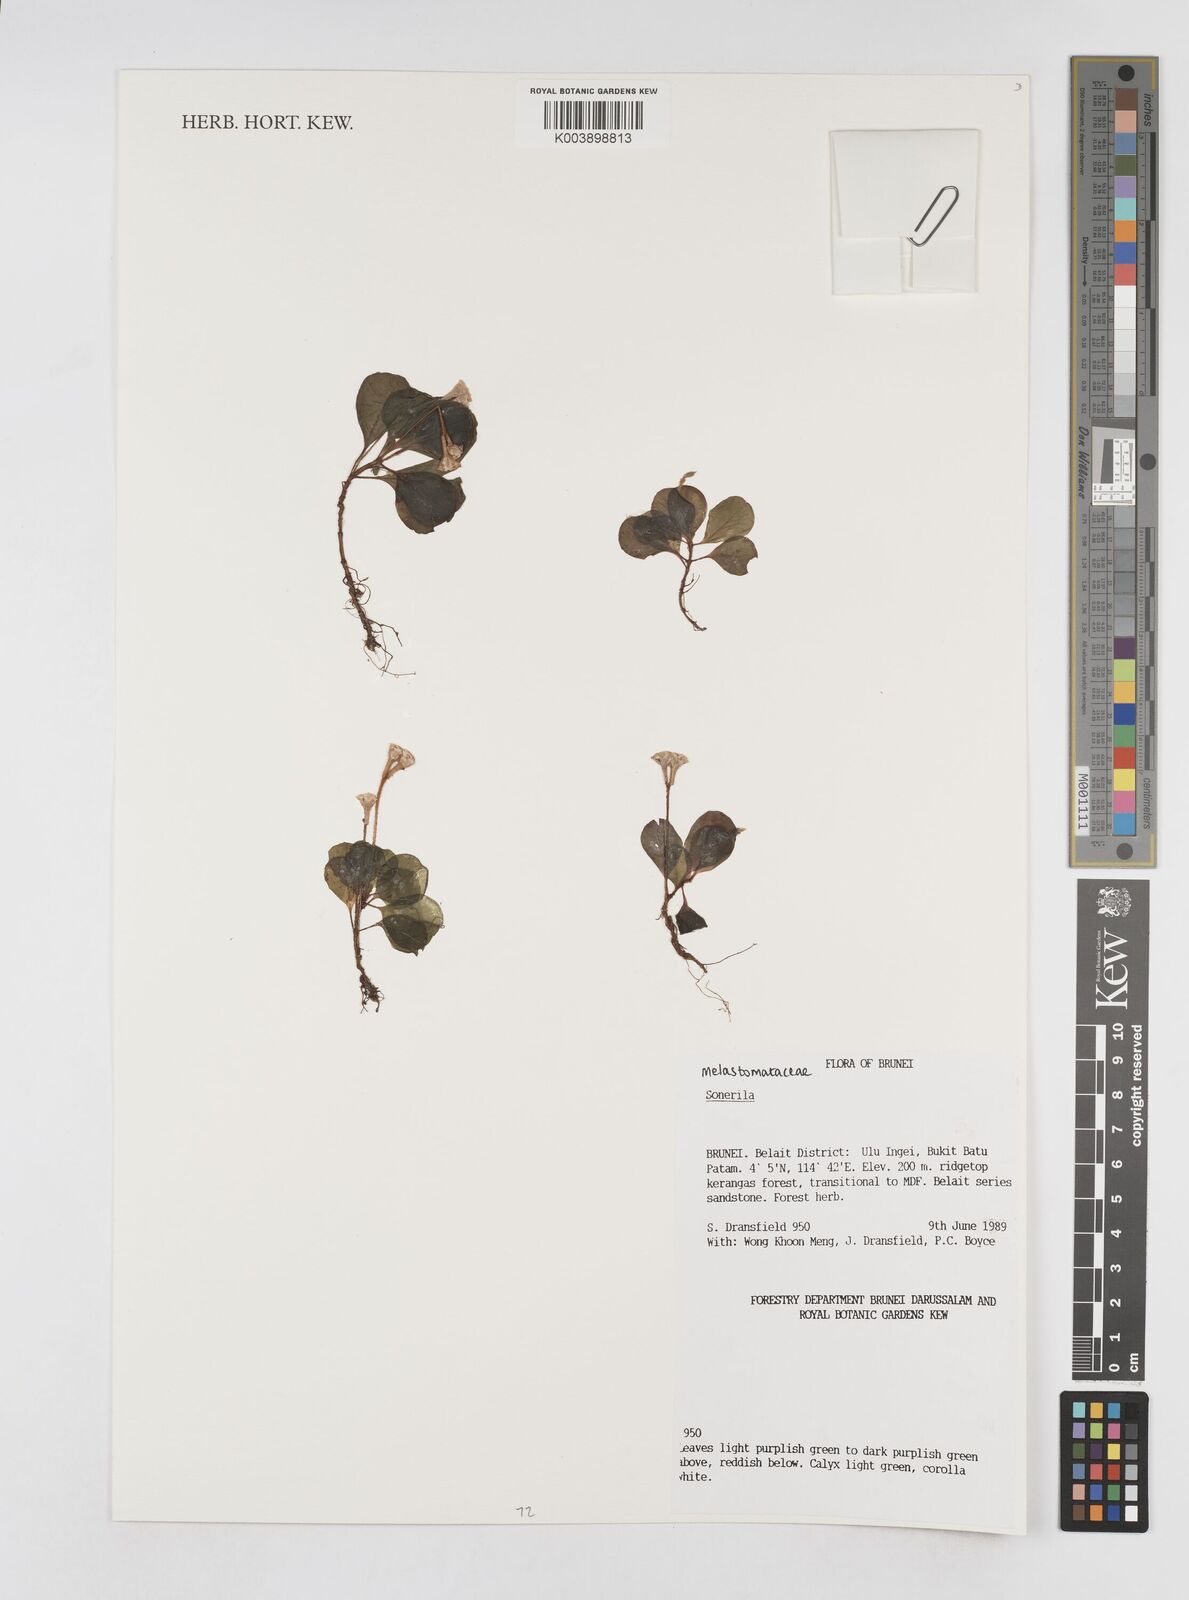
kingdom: Plantae
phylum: Tracheophyta
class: Magnoliopsida
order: Myrtales
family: Melastomataceae
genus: Sonerila
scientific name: Sonerila
